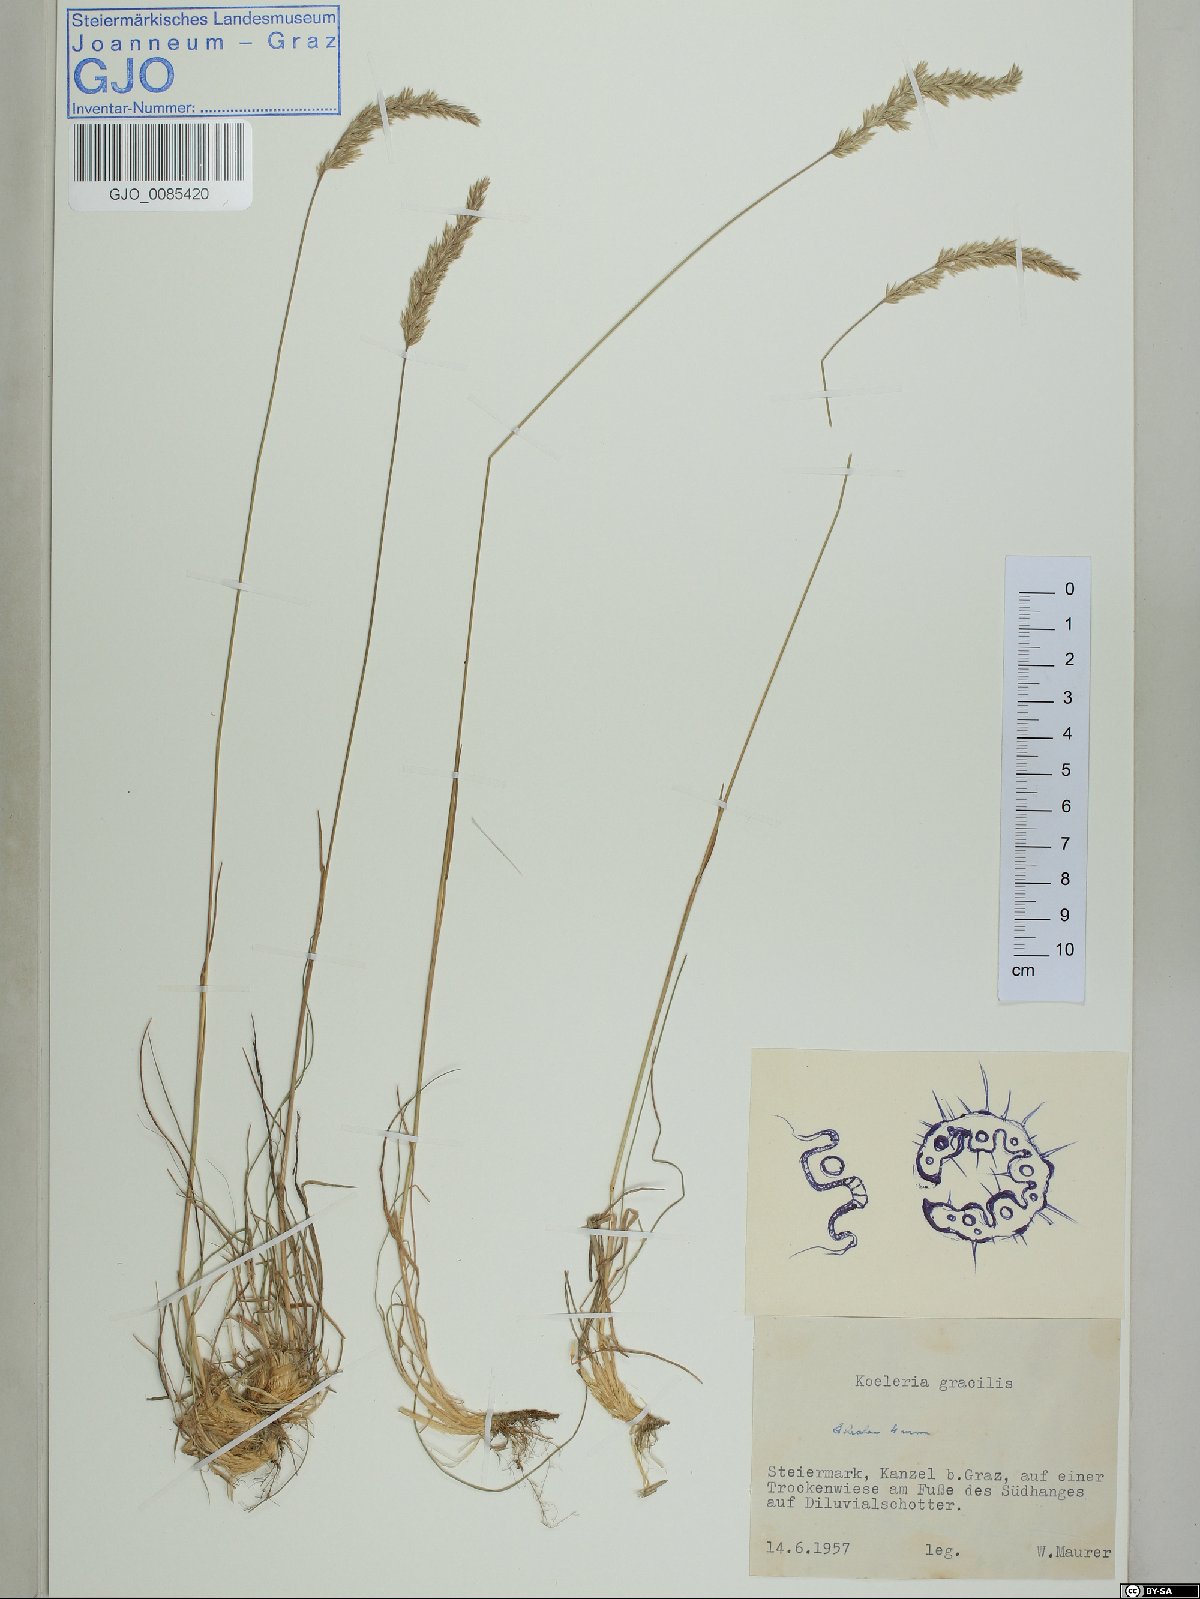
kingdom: Plantae
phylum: Tracheophyta
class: Liliopsida
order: Poales
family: Poaceae
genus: Koeleria
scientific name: Koeleria macrantha
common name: Crested hair-grass
